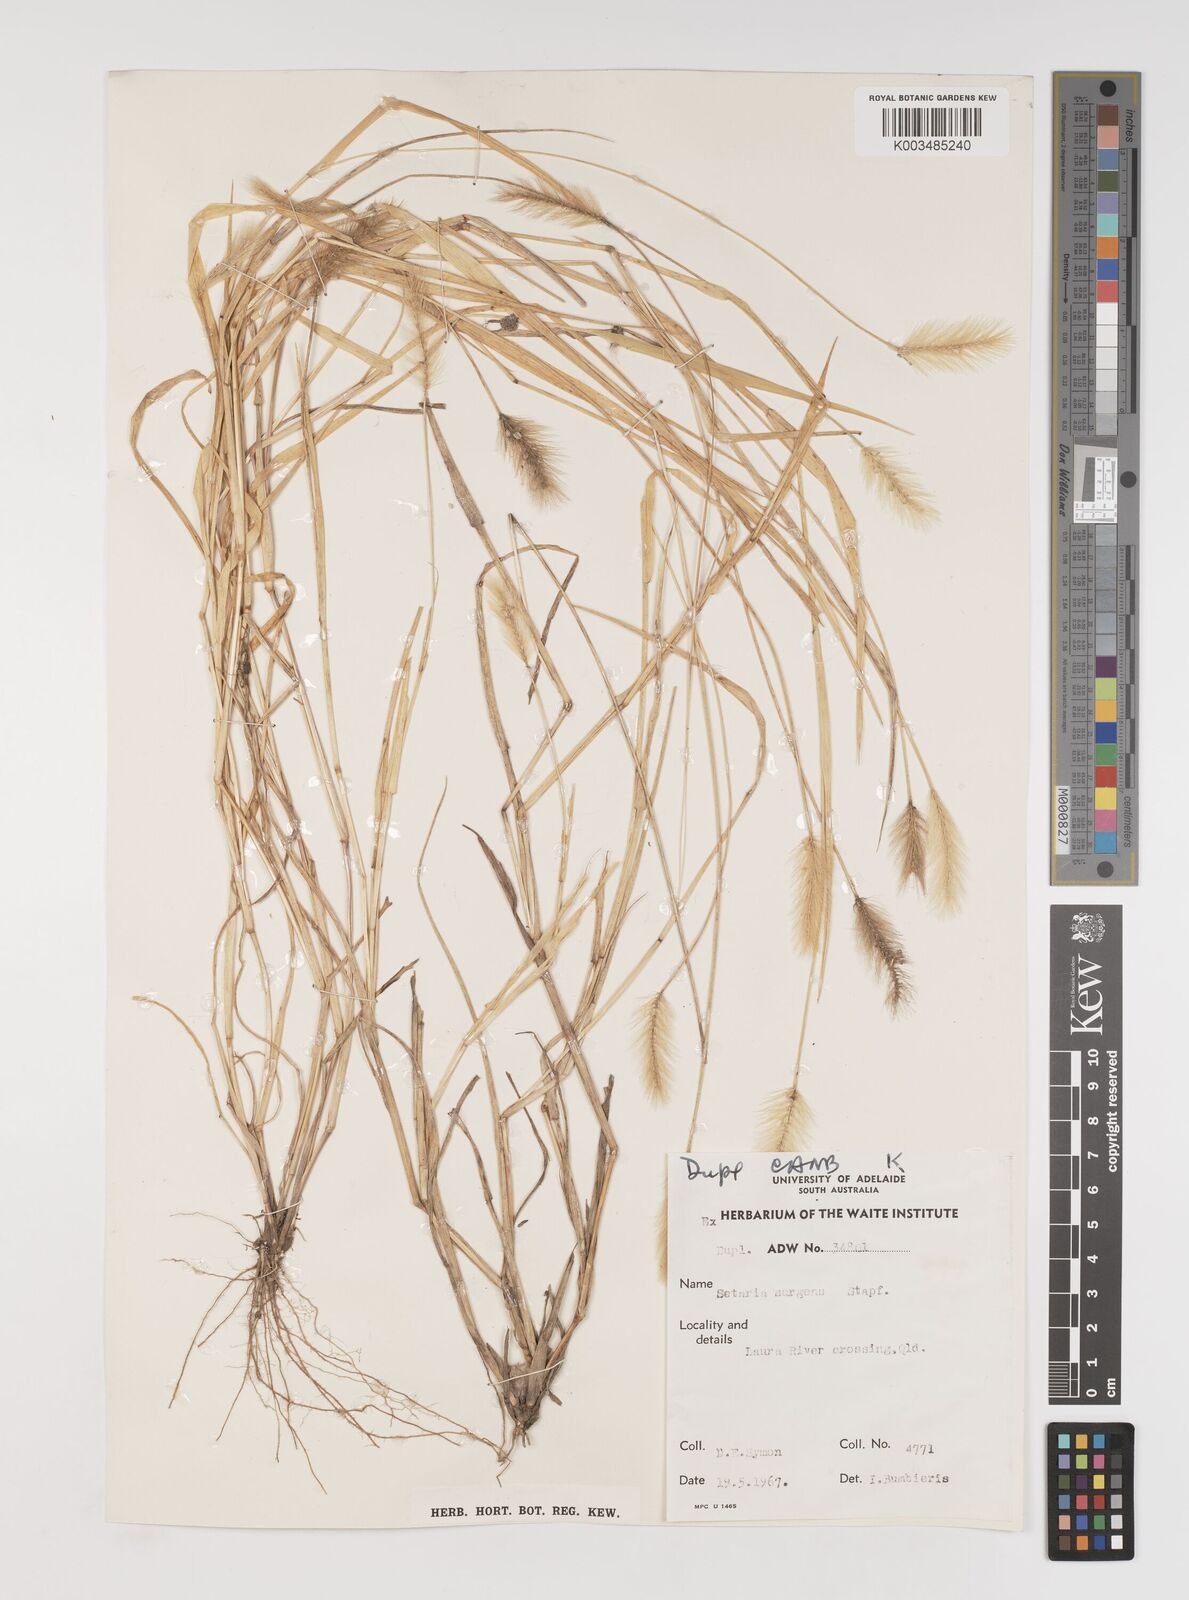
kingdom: Plantae
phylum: Tracheophyta
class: Liliopsida
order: Poales
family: Poaceae
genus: Setaria
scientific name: Setaria surgens
